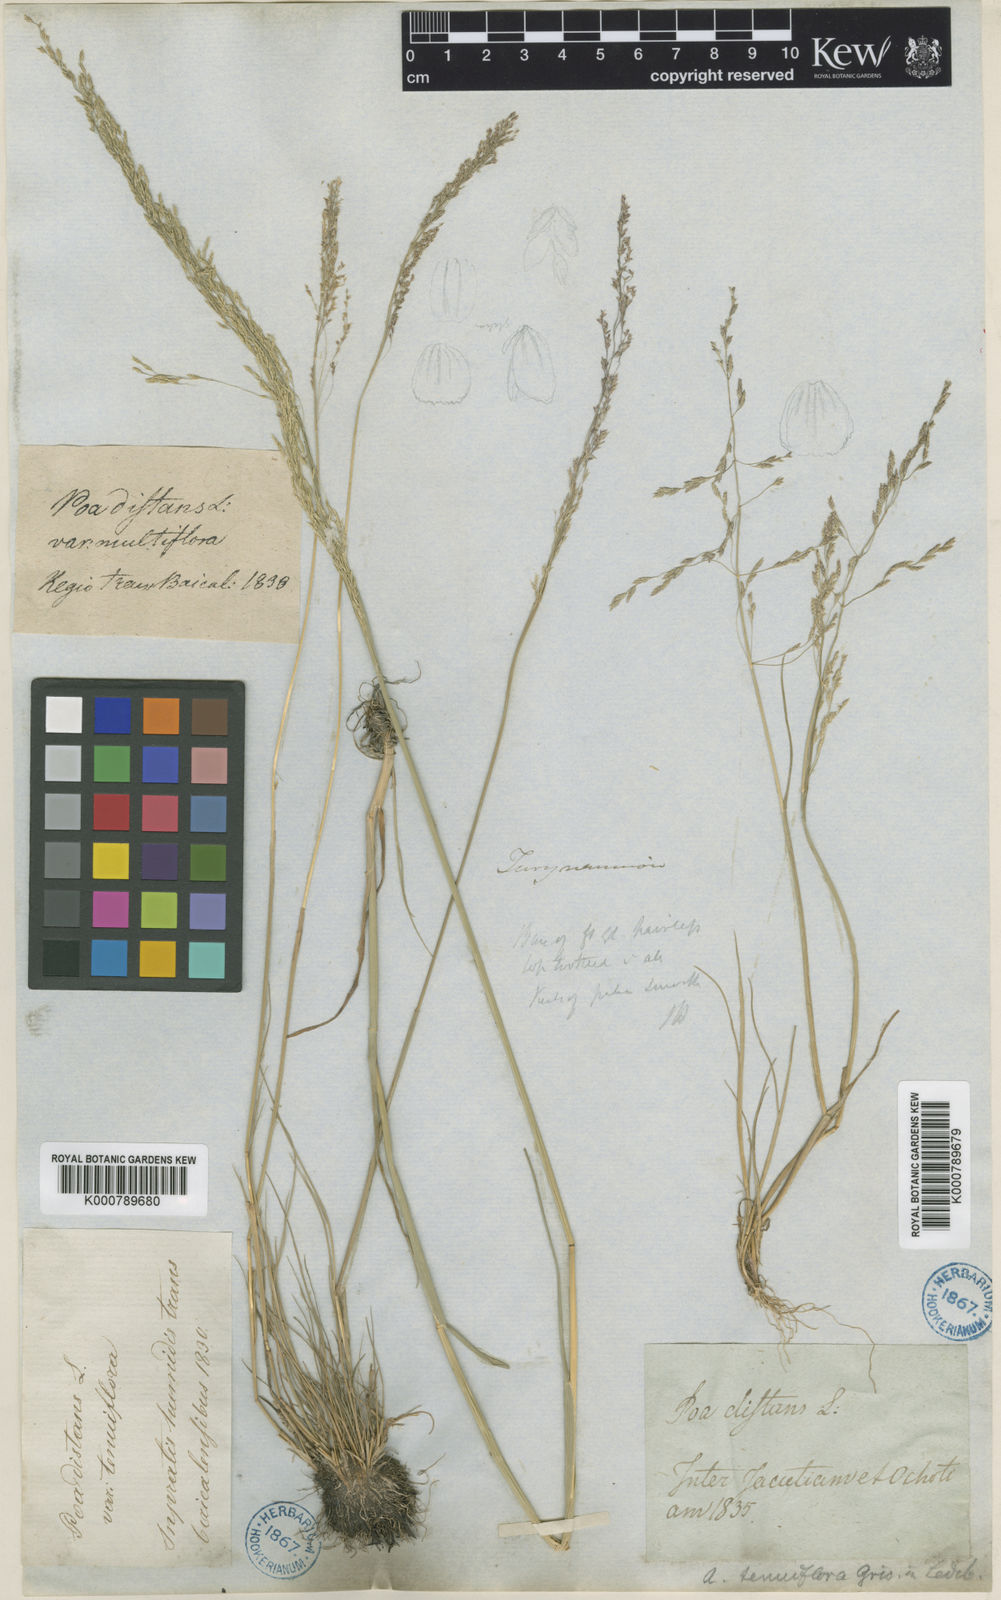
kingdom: Plantae
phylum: Tracheophyta
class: Liliopsida
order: Poales
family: Poaceae
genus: Puccinellia
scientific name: Puccinellia distans
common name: Weeping alkaligrass
